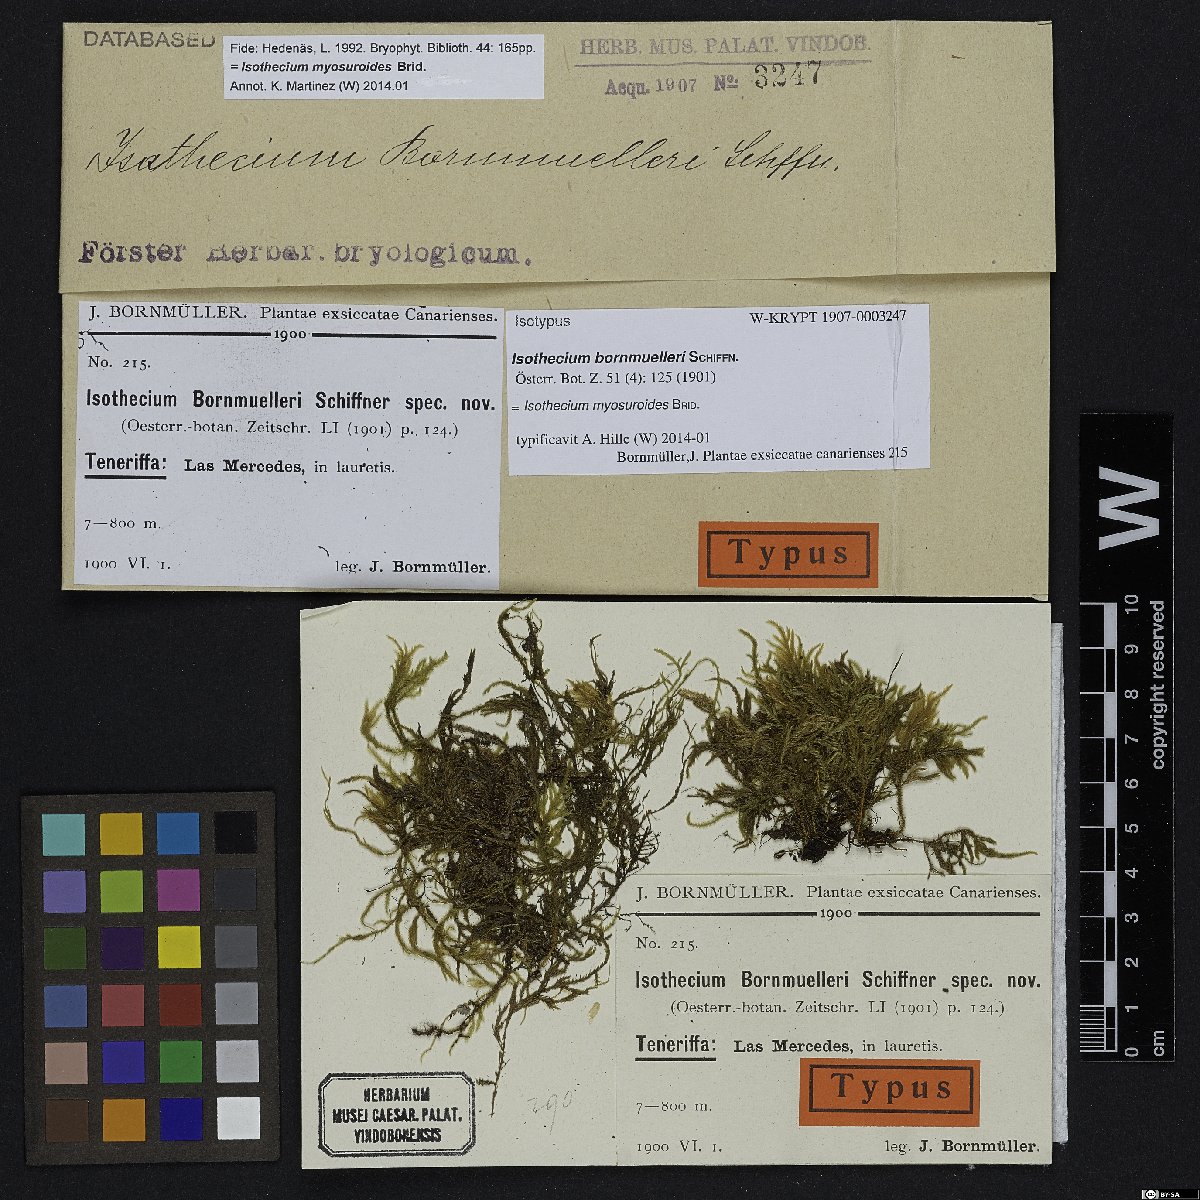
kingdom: Plantae
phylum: Bryophyta
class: Bryopsida
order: Hypnales
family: Lembophyllaceae
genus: Pseudisothecium
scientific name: Pseudisothecium myosuroides
